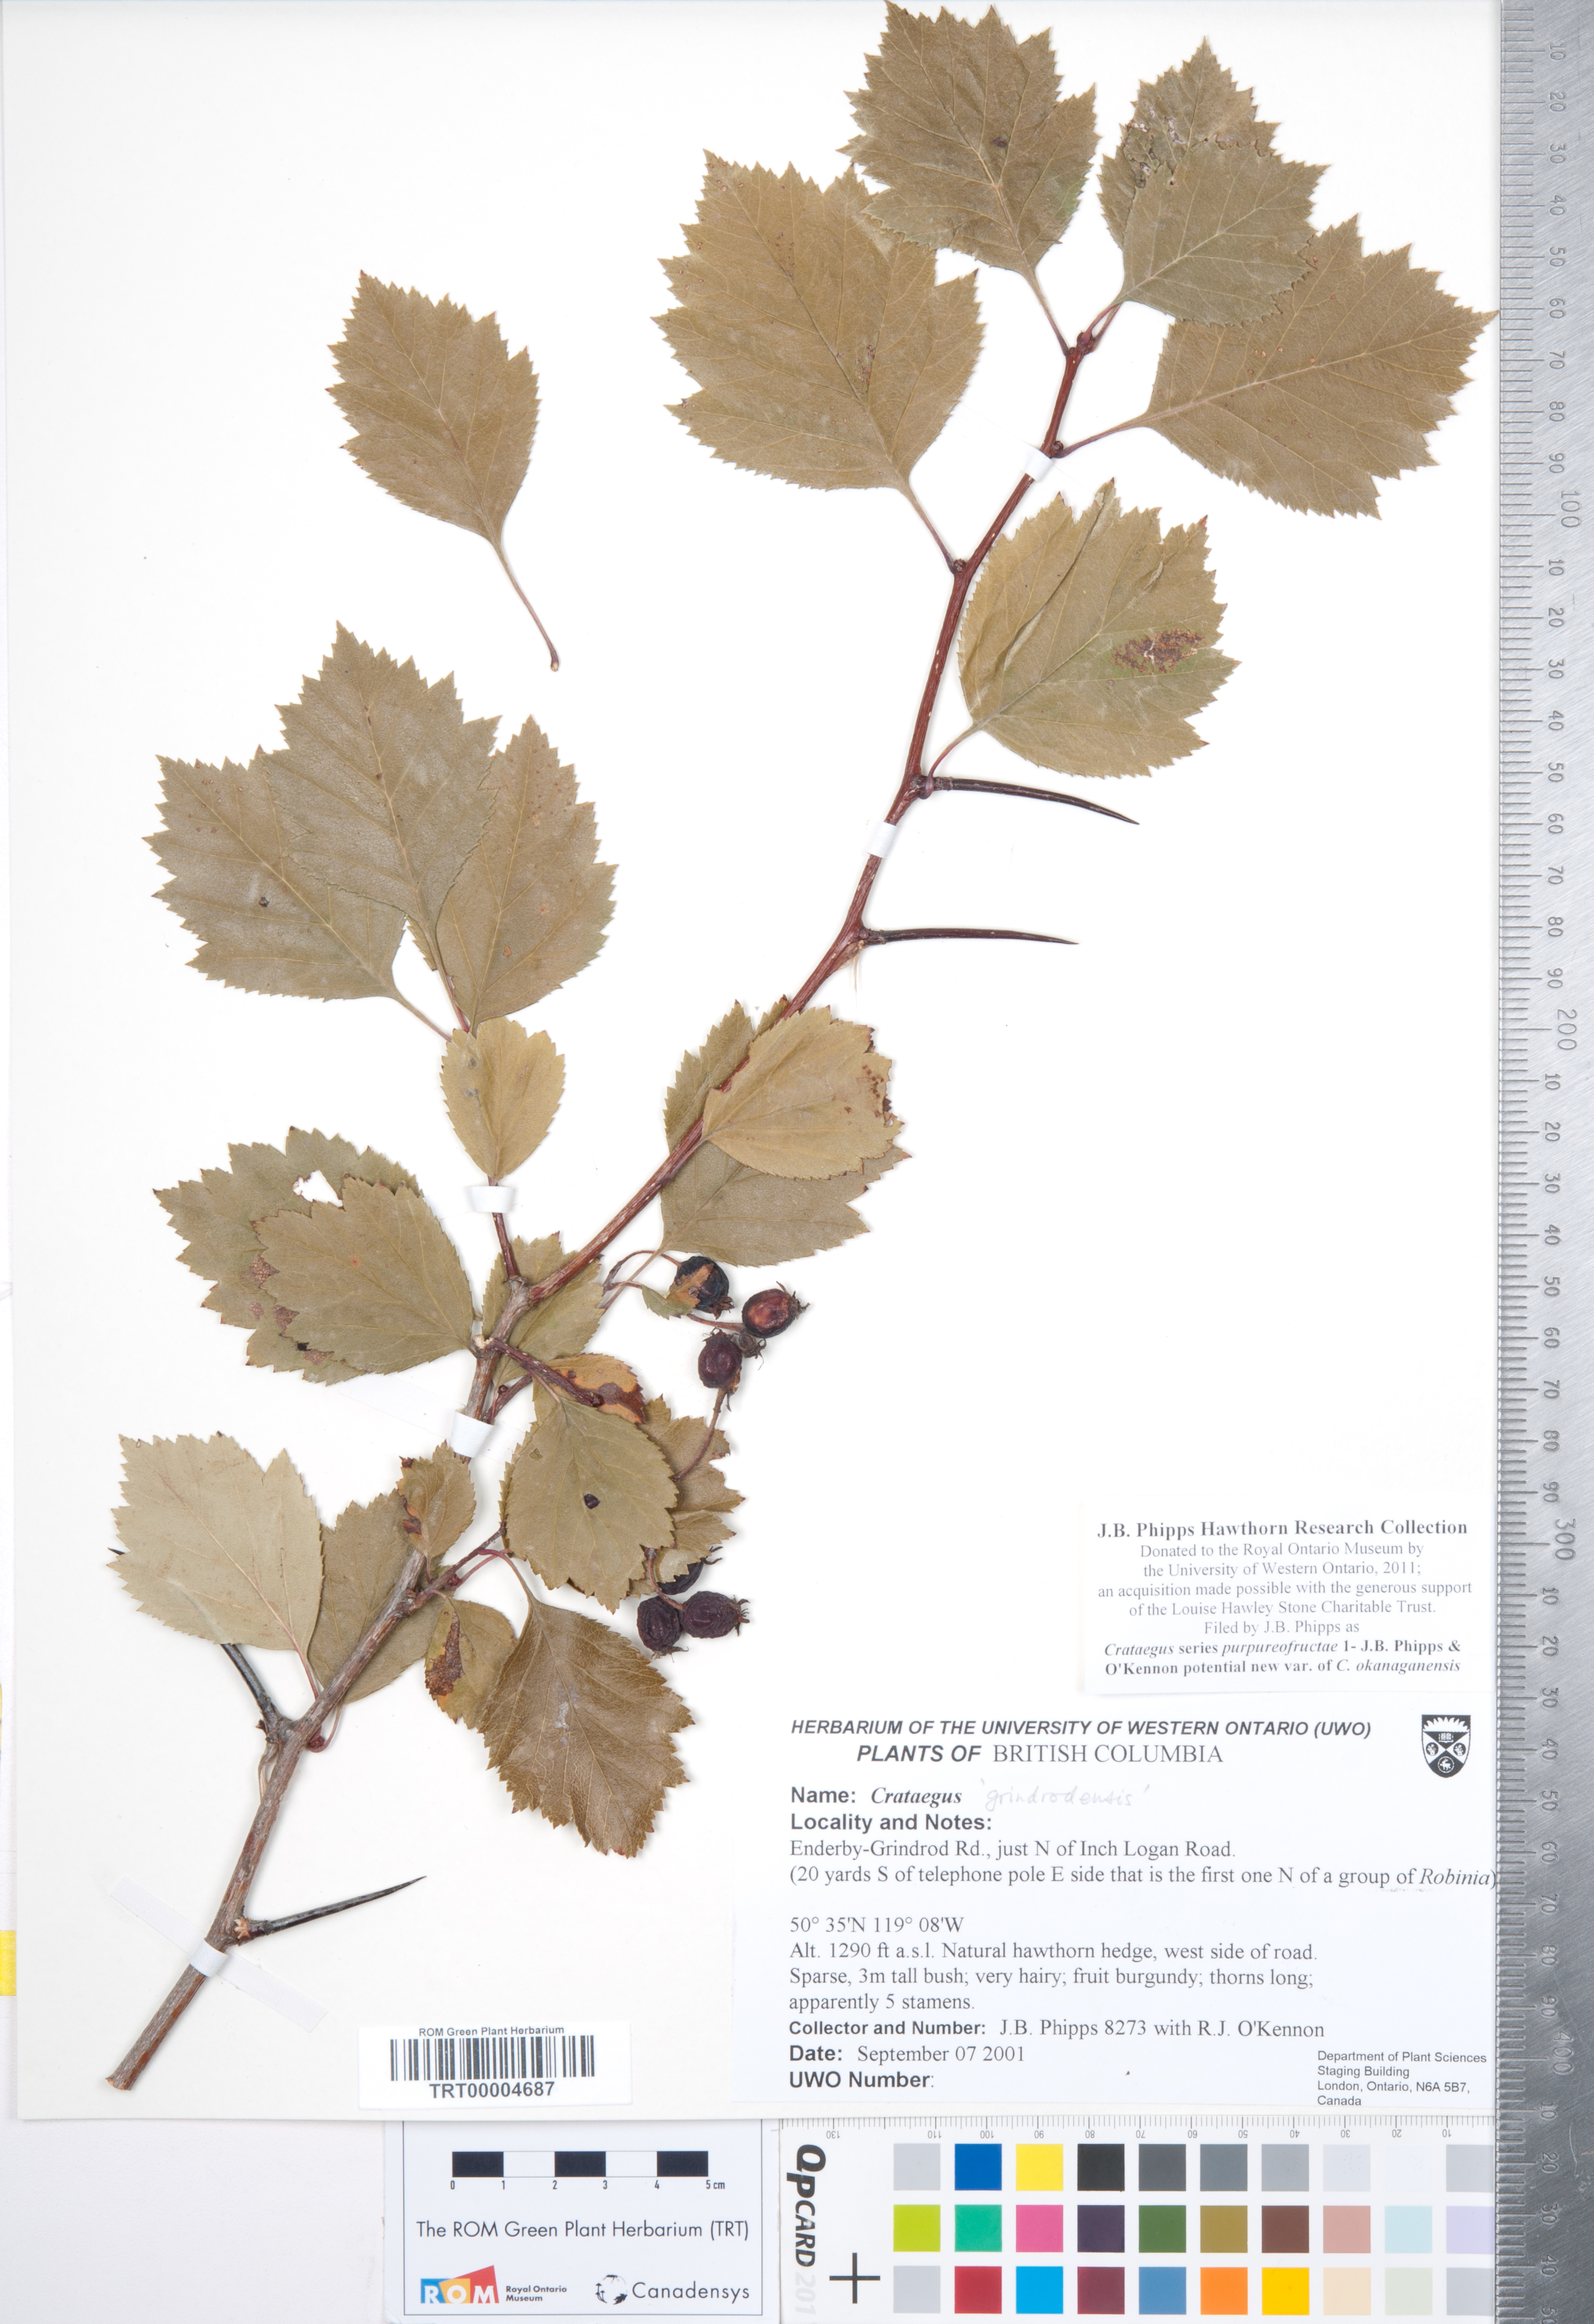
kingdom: Plantae
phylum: Tracheophyta
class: Magnoliopsida
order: Rosales
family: Rosaceae
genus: Crataegus
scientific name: Crataegus okanaganensis
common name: Okanagan valley hawthorn
